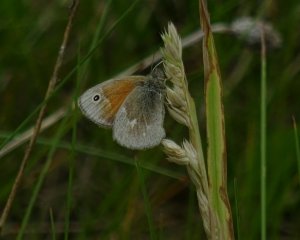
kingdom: Animalia
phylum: Arthropoda
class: Insecta
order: Lepidoptera
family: Nymphalidae
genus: Coenonympha
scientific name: Coenonympha tullia
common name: Large Heath
